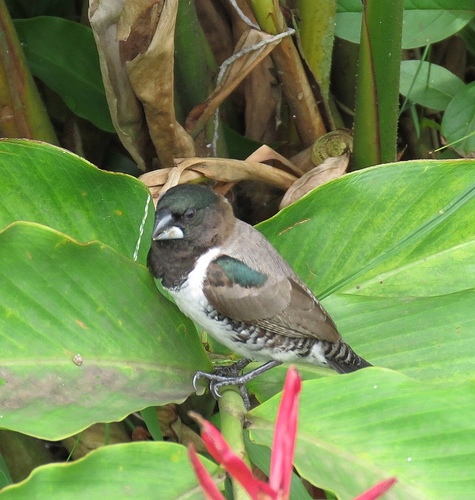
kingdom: Animalia
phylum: Chordata
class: Aves
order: Passeriformes
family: Estrildidae
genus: Lonchura
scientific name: Lonchura cucullata
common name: Bronze mannikin
